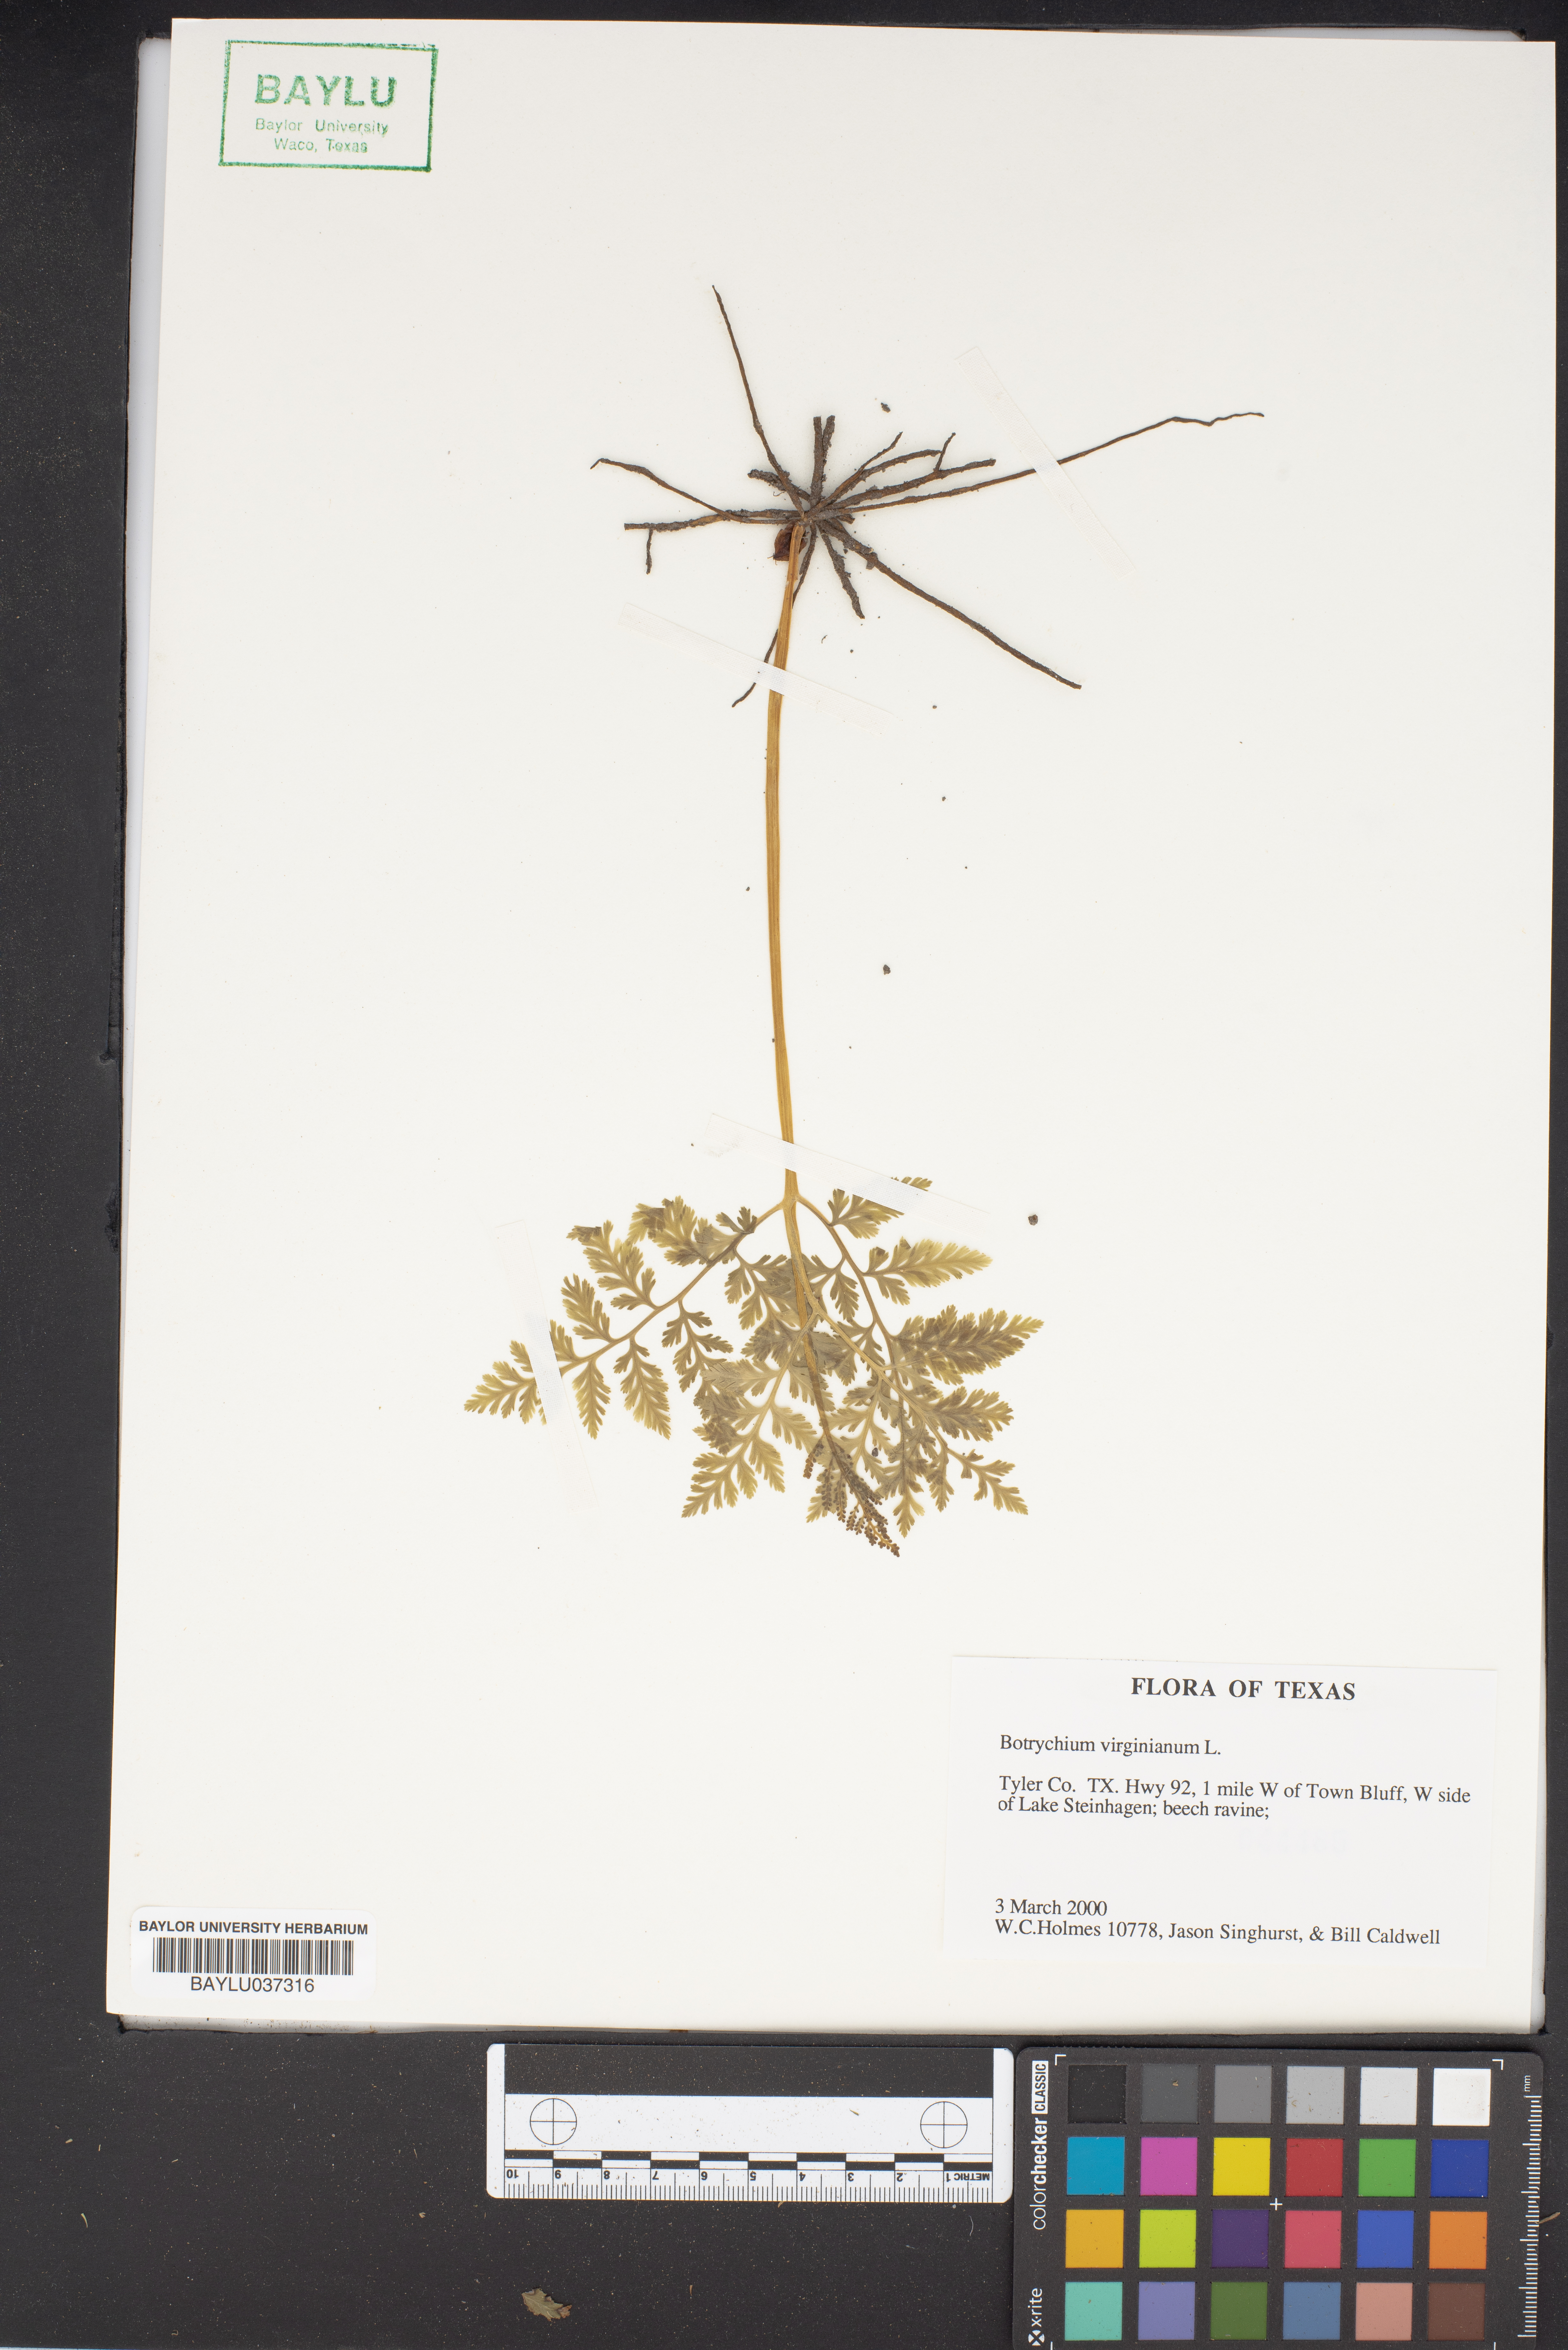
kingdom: Plantae
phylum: Tracheophyta
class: Polypodiopsida
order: Ophioglossales
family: Ophioglossaceae
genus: Botrypus
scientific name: Botrypus virginianus
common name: Common grapefern
